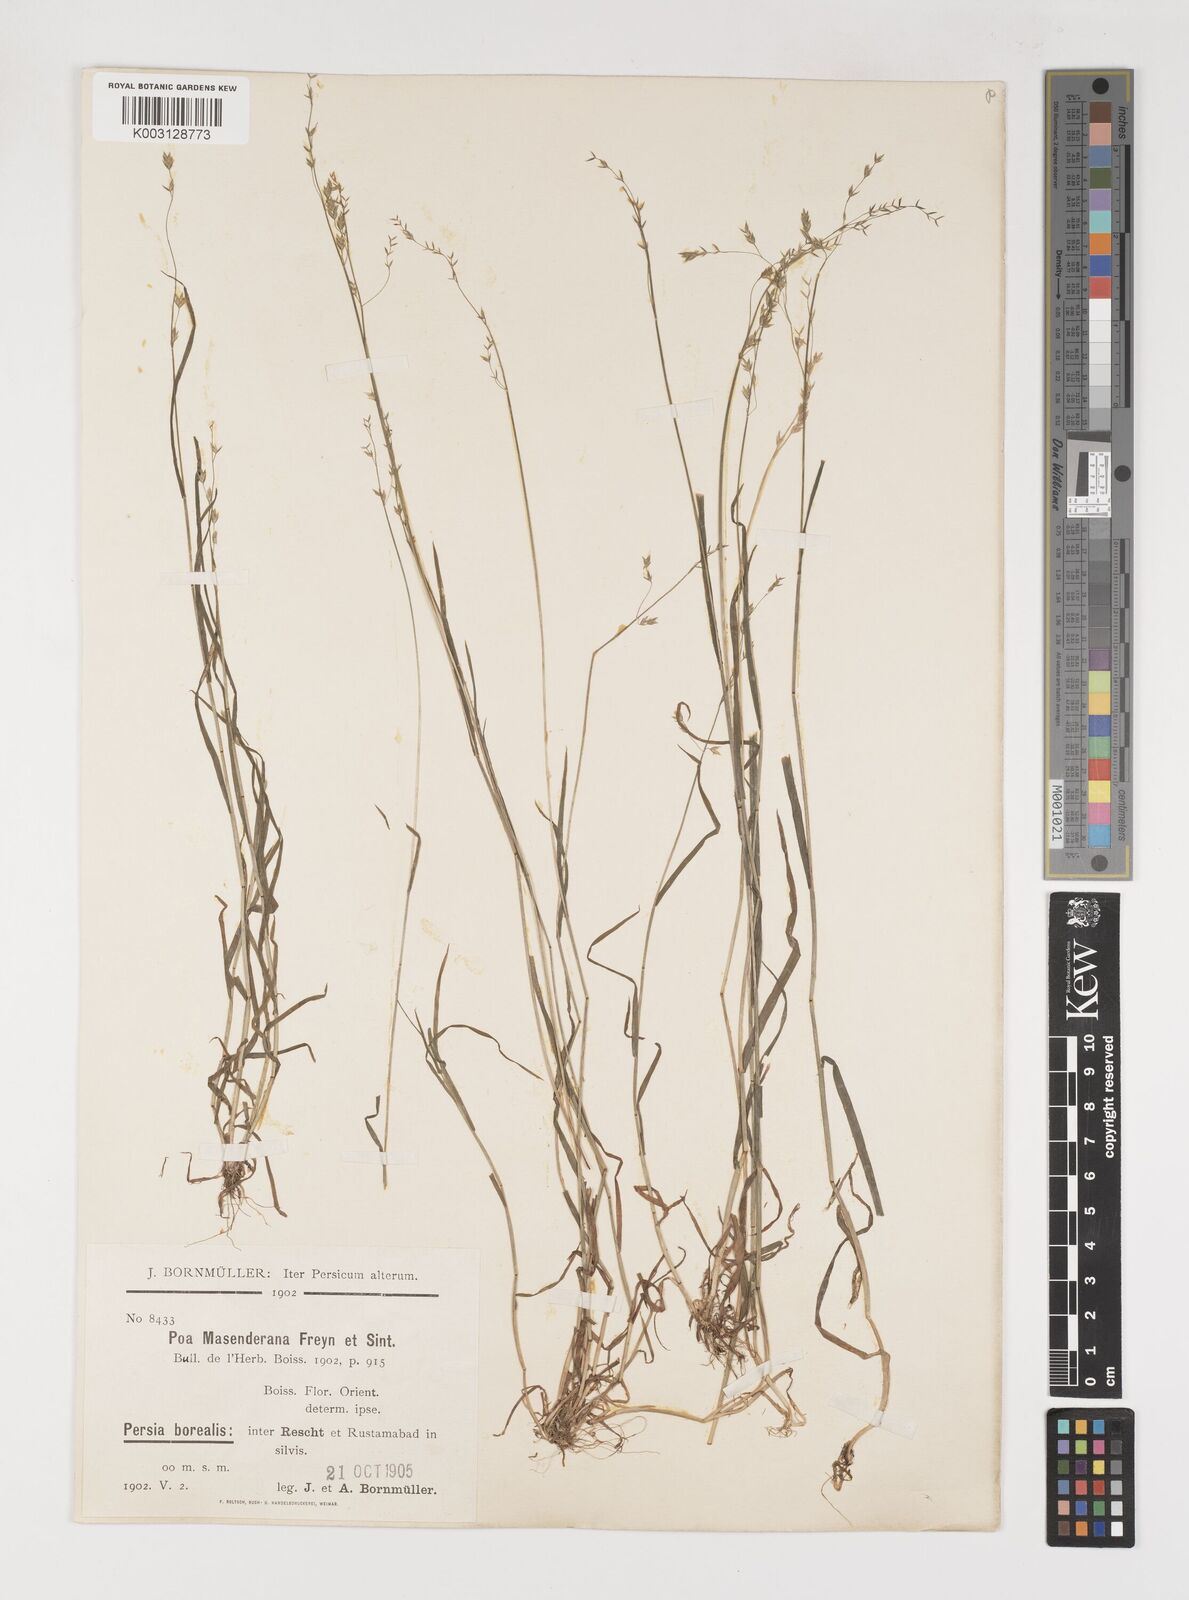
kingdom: Plantae
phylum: Tracheophyta
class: Liliopsida
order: Poales
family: Poaceae
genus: Poa
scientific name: Poa masenderana
